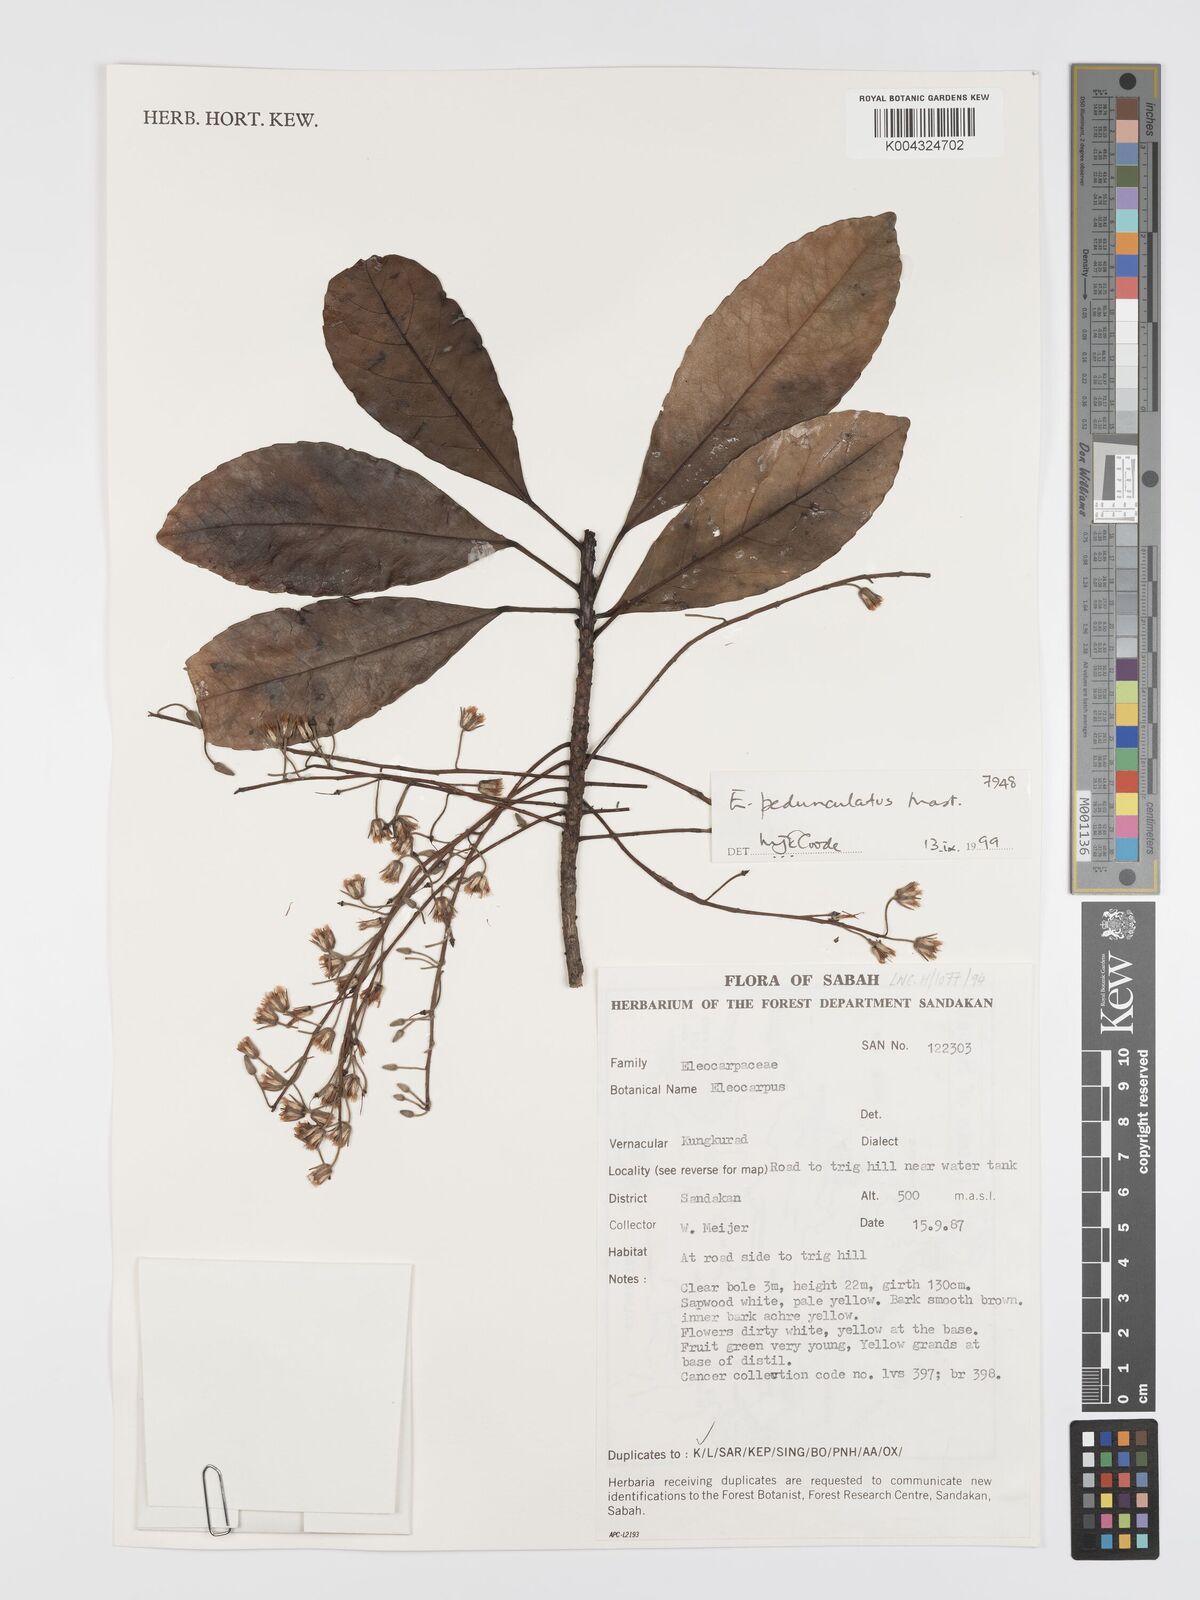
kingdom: Plantae
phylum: Tracheophyta
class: Magnoliopsida
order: Oxalidales
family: Elaeocarpaceae
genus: Elaeocarpus
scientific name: Elaeocarpus pedunculatus
